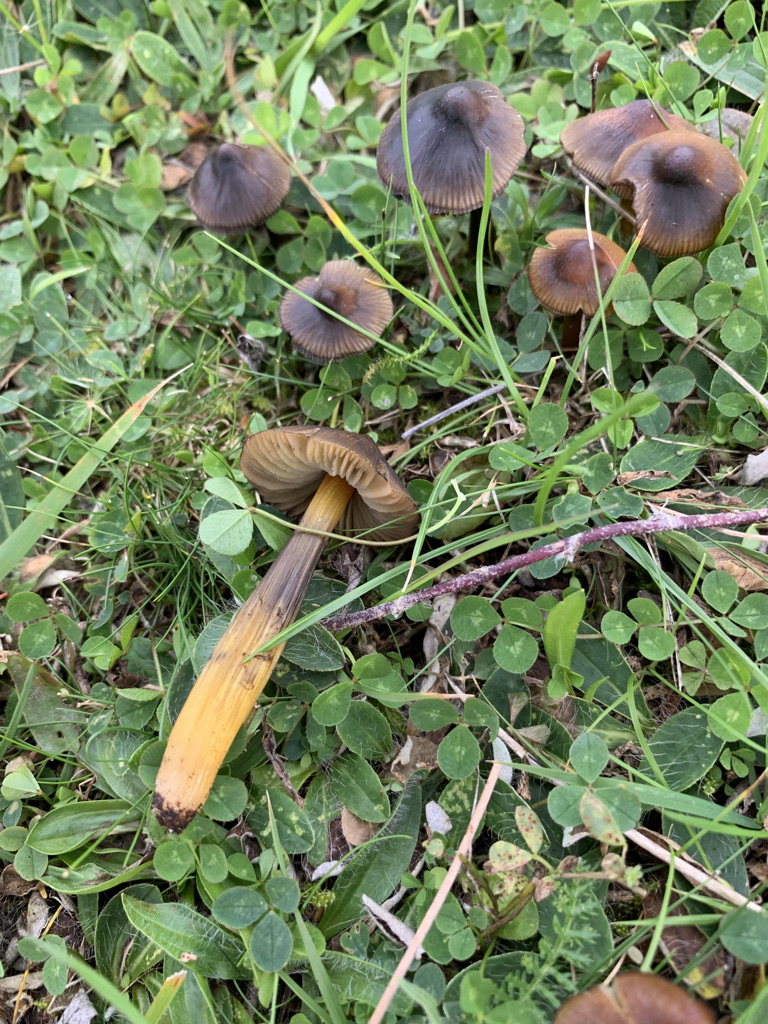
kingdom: Fungi
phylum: Basidiomycota
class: Agaricomycetes
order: Agaricales
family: Hygrophoraceae
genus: Hygrocybe
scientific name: Hygrocybe conica
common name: kegle-vokshat
